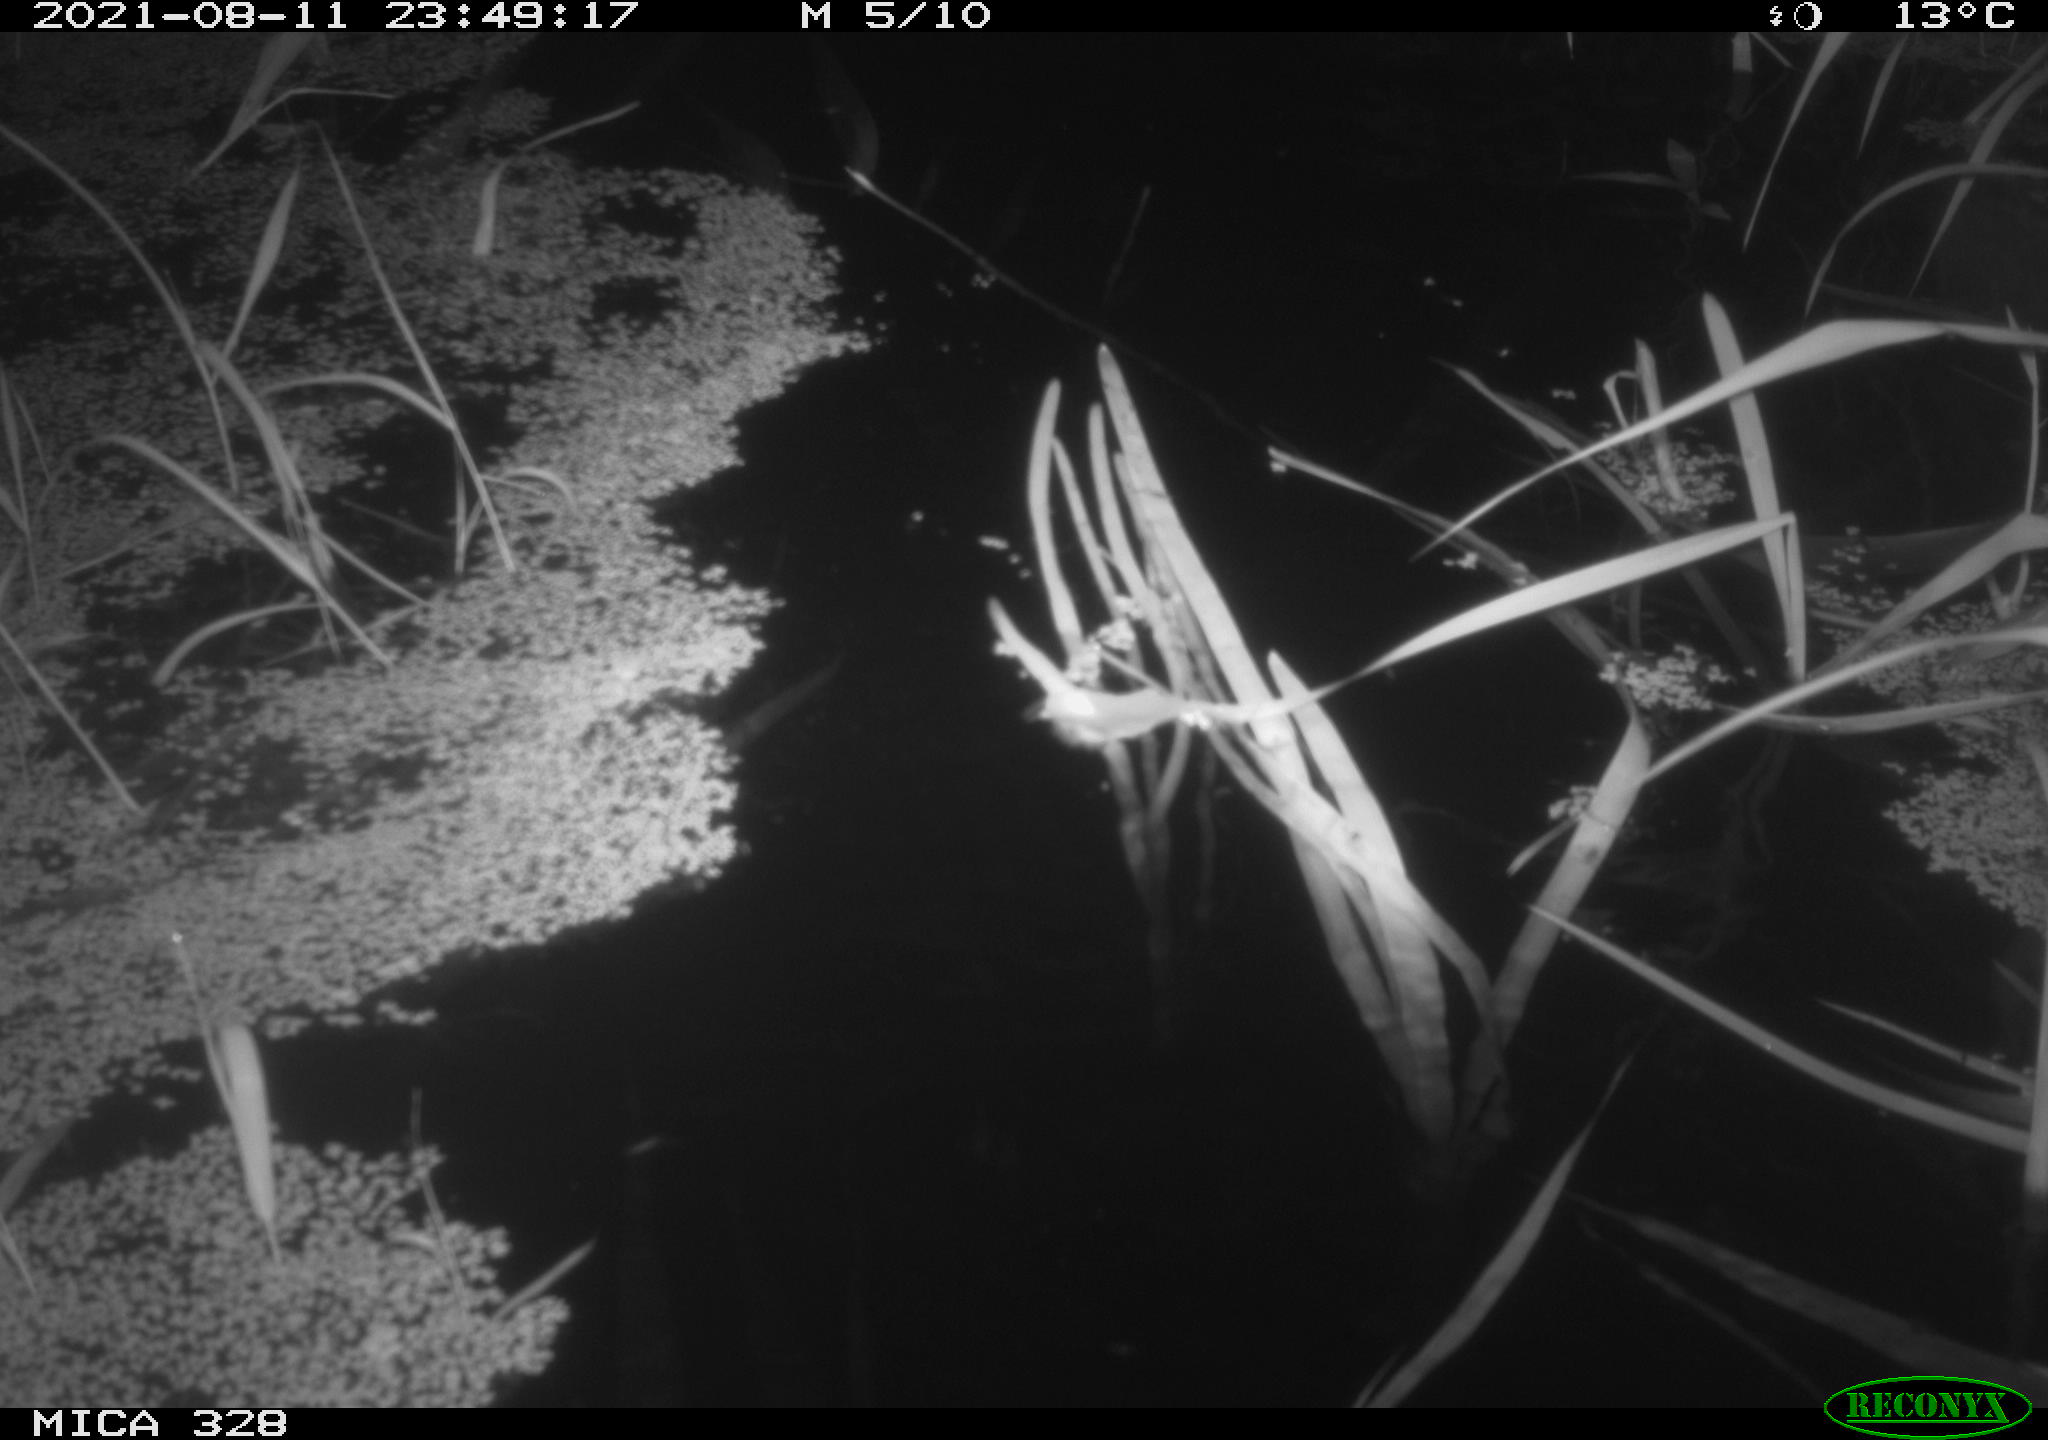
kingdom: Animalia
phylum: Chordata
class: Mammalia
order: Rodentia
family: Cricetidae
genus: Ondatra
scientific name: Ondatra zibethicus
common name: Muskrat
